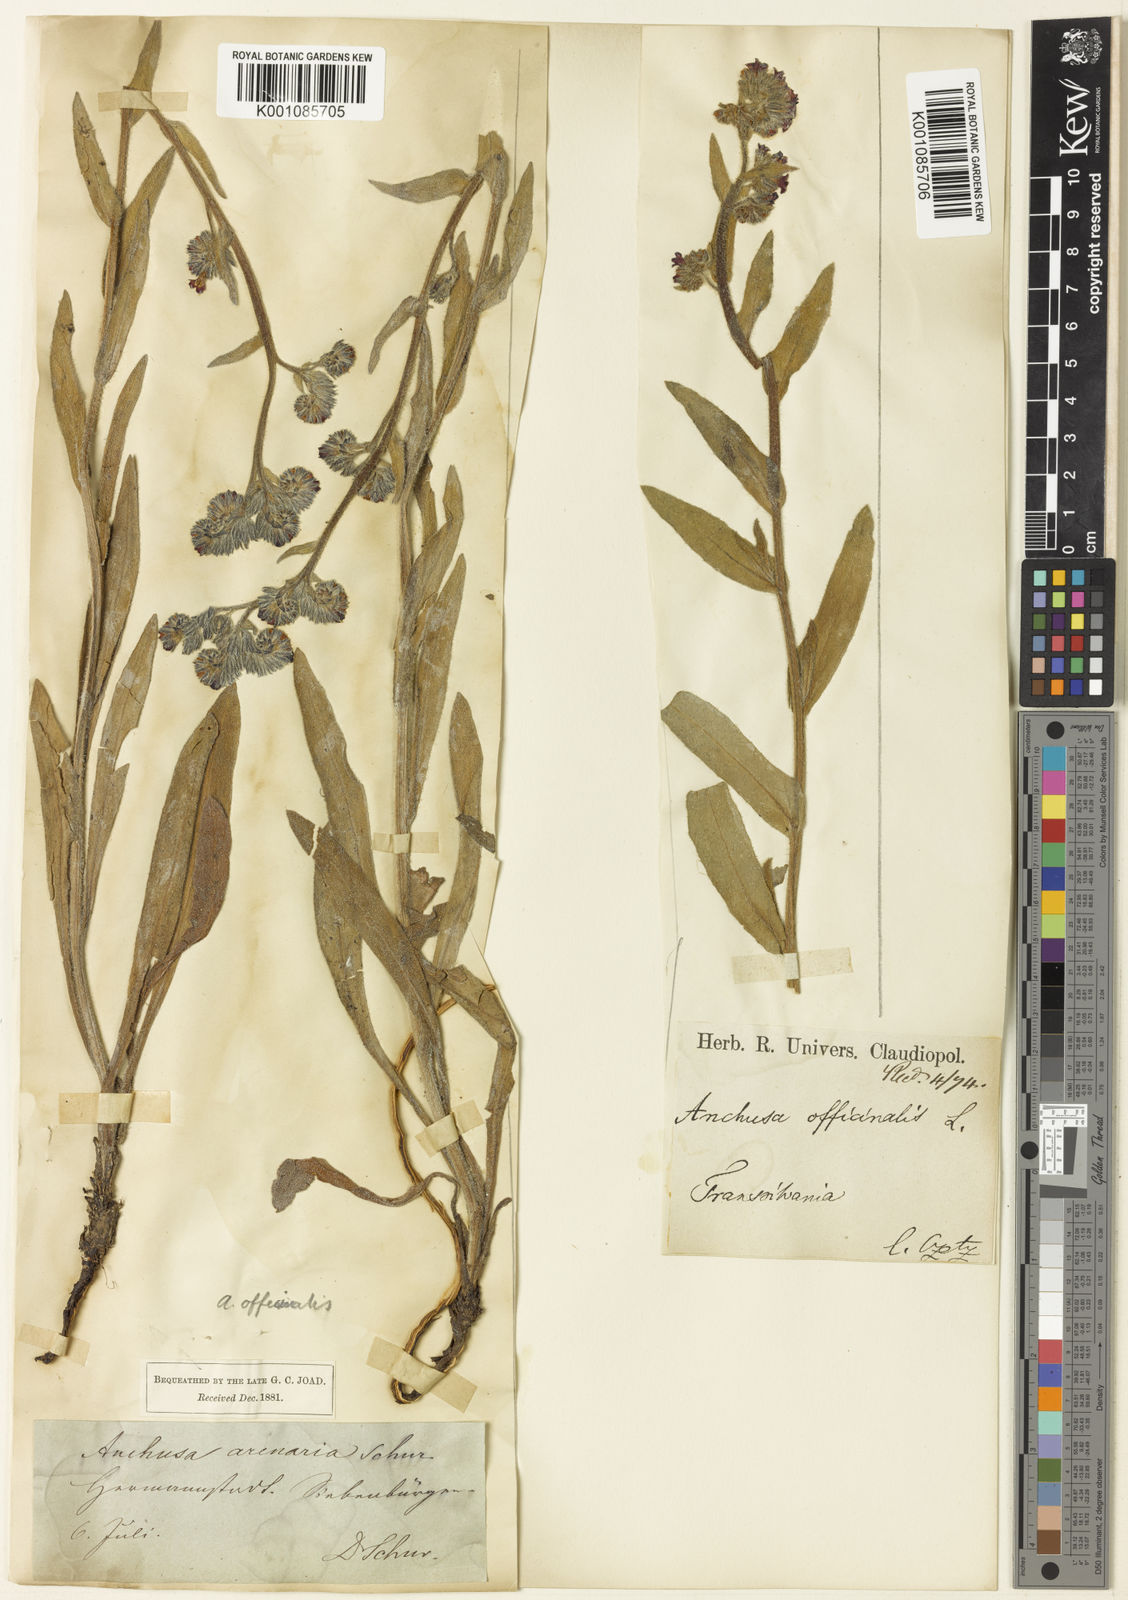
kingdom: Plantae
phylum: Tracheophyta
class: Magnoliopsida
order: Boraginales
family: Boraginaceae
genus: Anchusa
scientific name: Anchusa officinalis
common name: Alkanet
